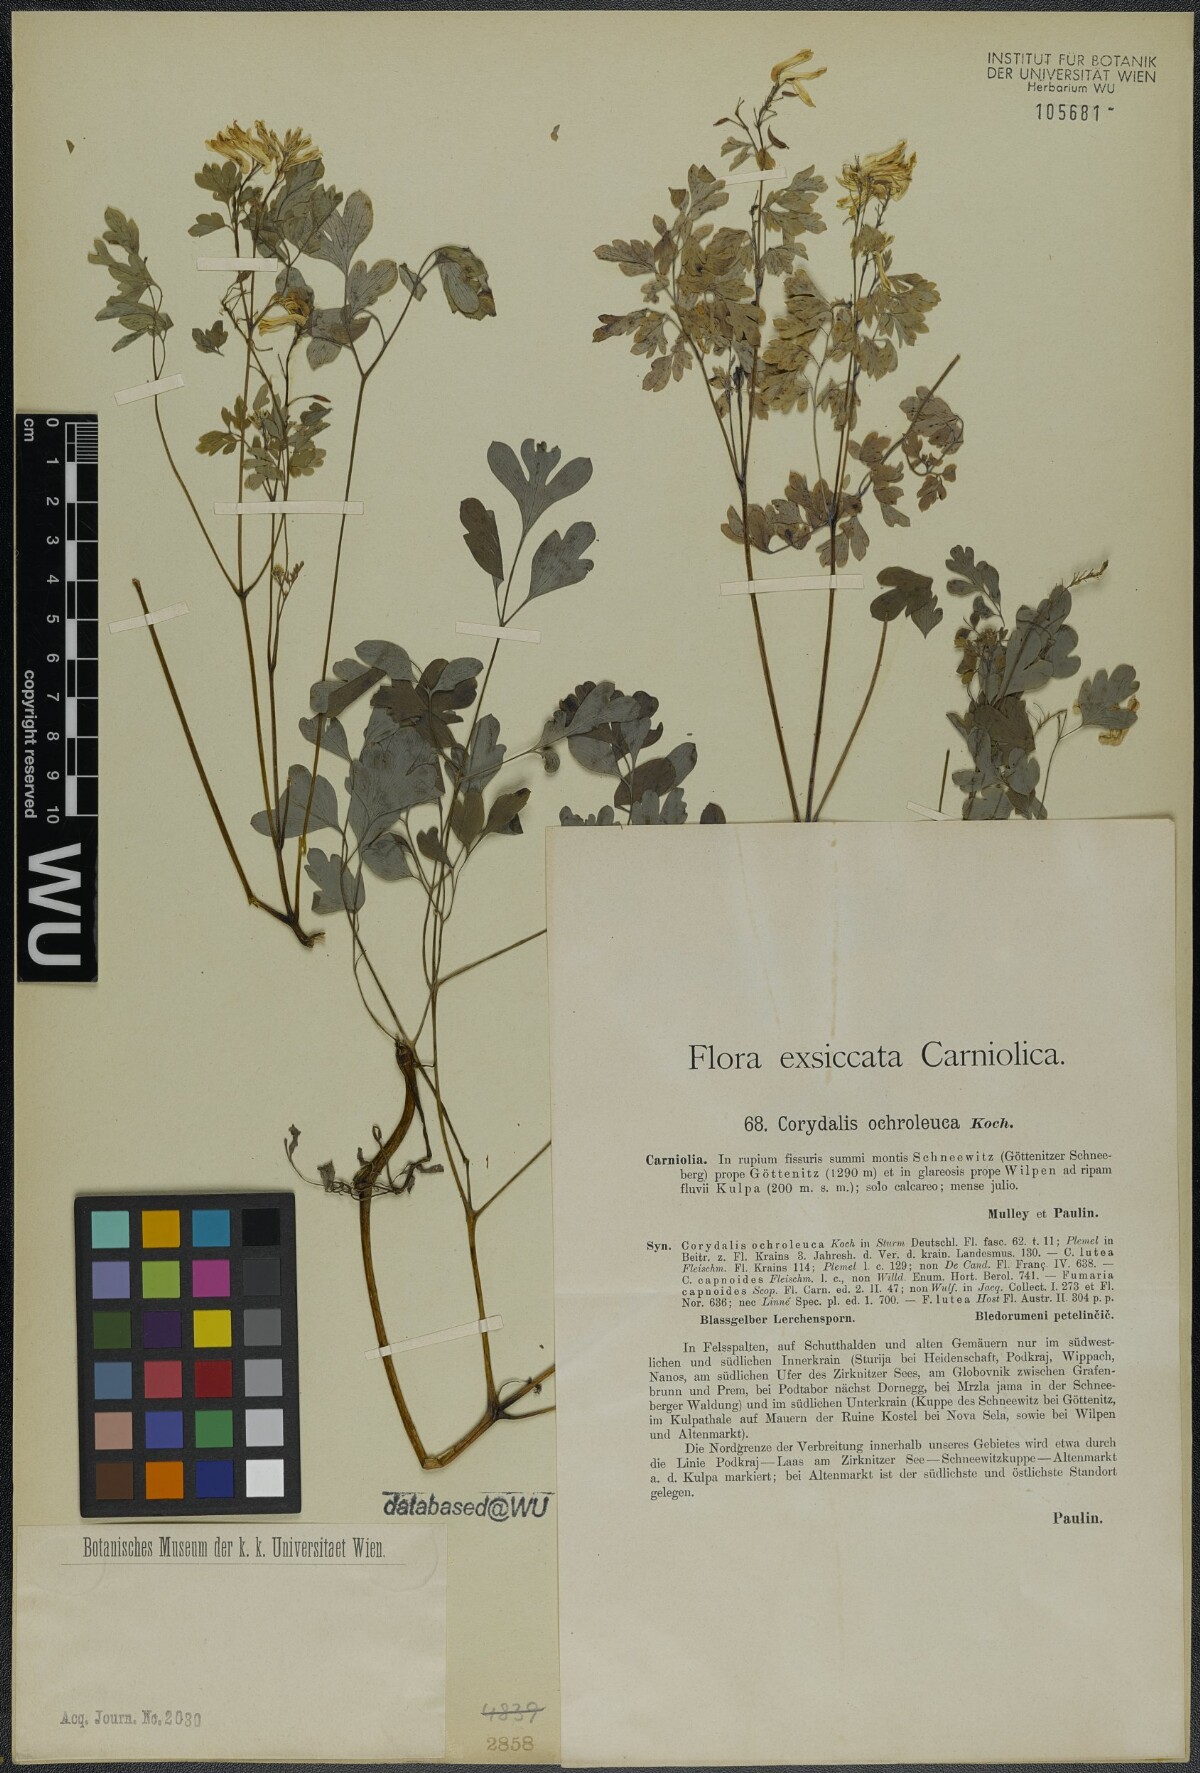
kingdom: Plantae
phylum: Tracheophyta
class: Magnoliopsida
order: Ranunculales
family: Papaveraceae
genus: Pseudofumaria
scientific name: Pseudofumaria alba
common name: Pale corydalis
